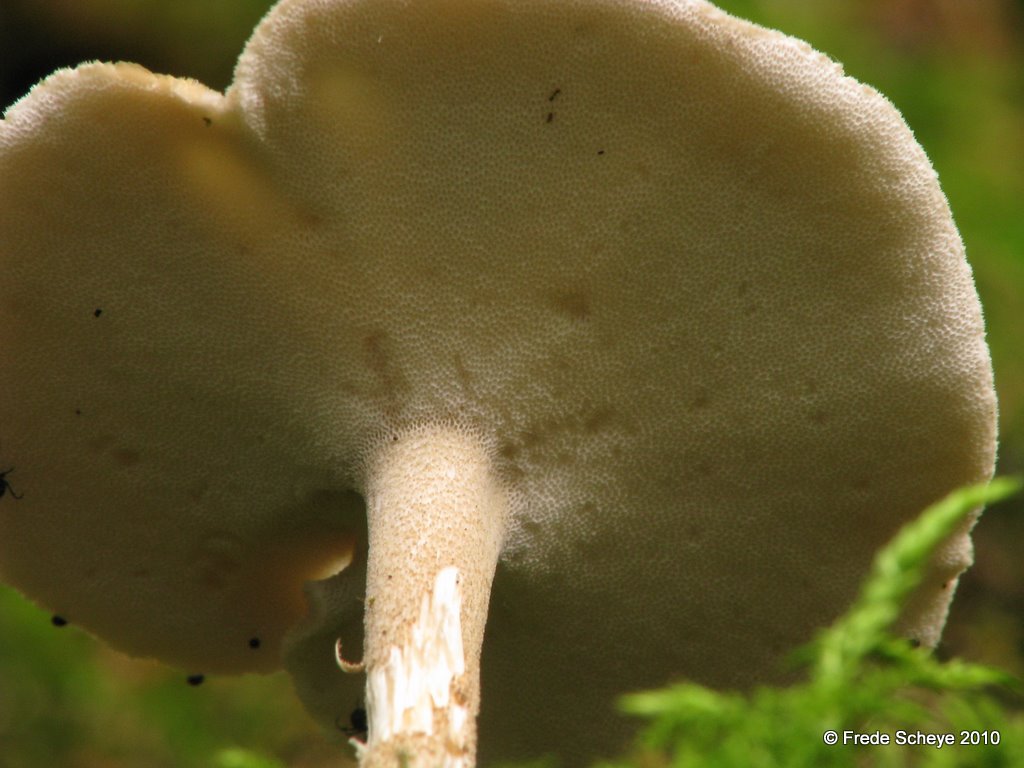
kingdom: Fungi
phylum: Basidiomycota
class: Agaricomycetes
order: Polyporales
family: Polyporaceae
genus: Lentinus
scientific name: Lentinus brumalis
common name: vinter-stilkporesvamp
